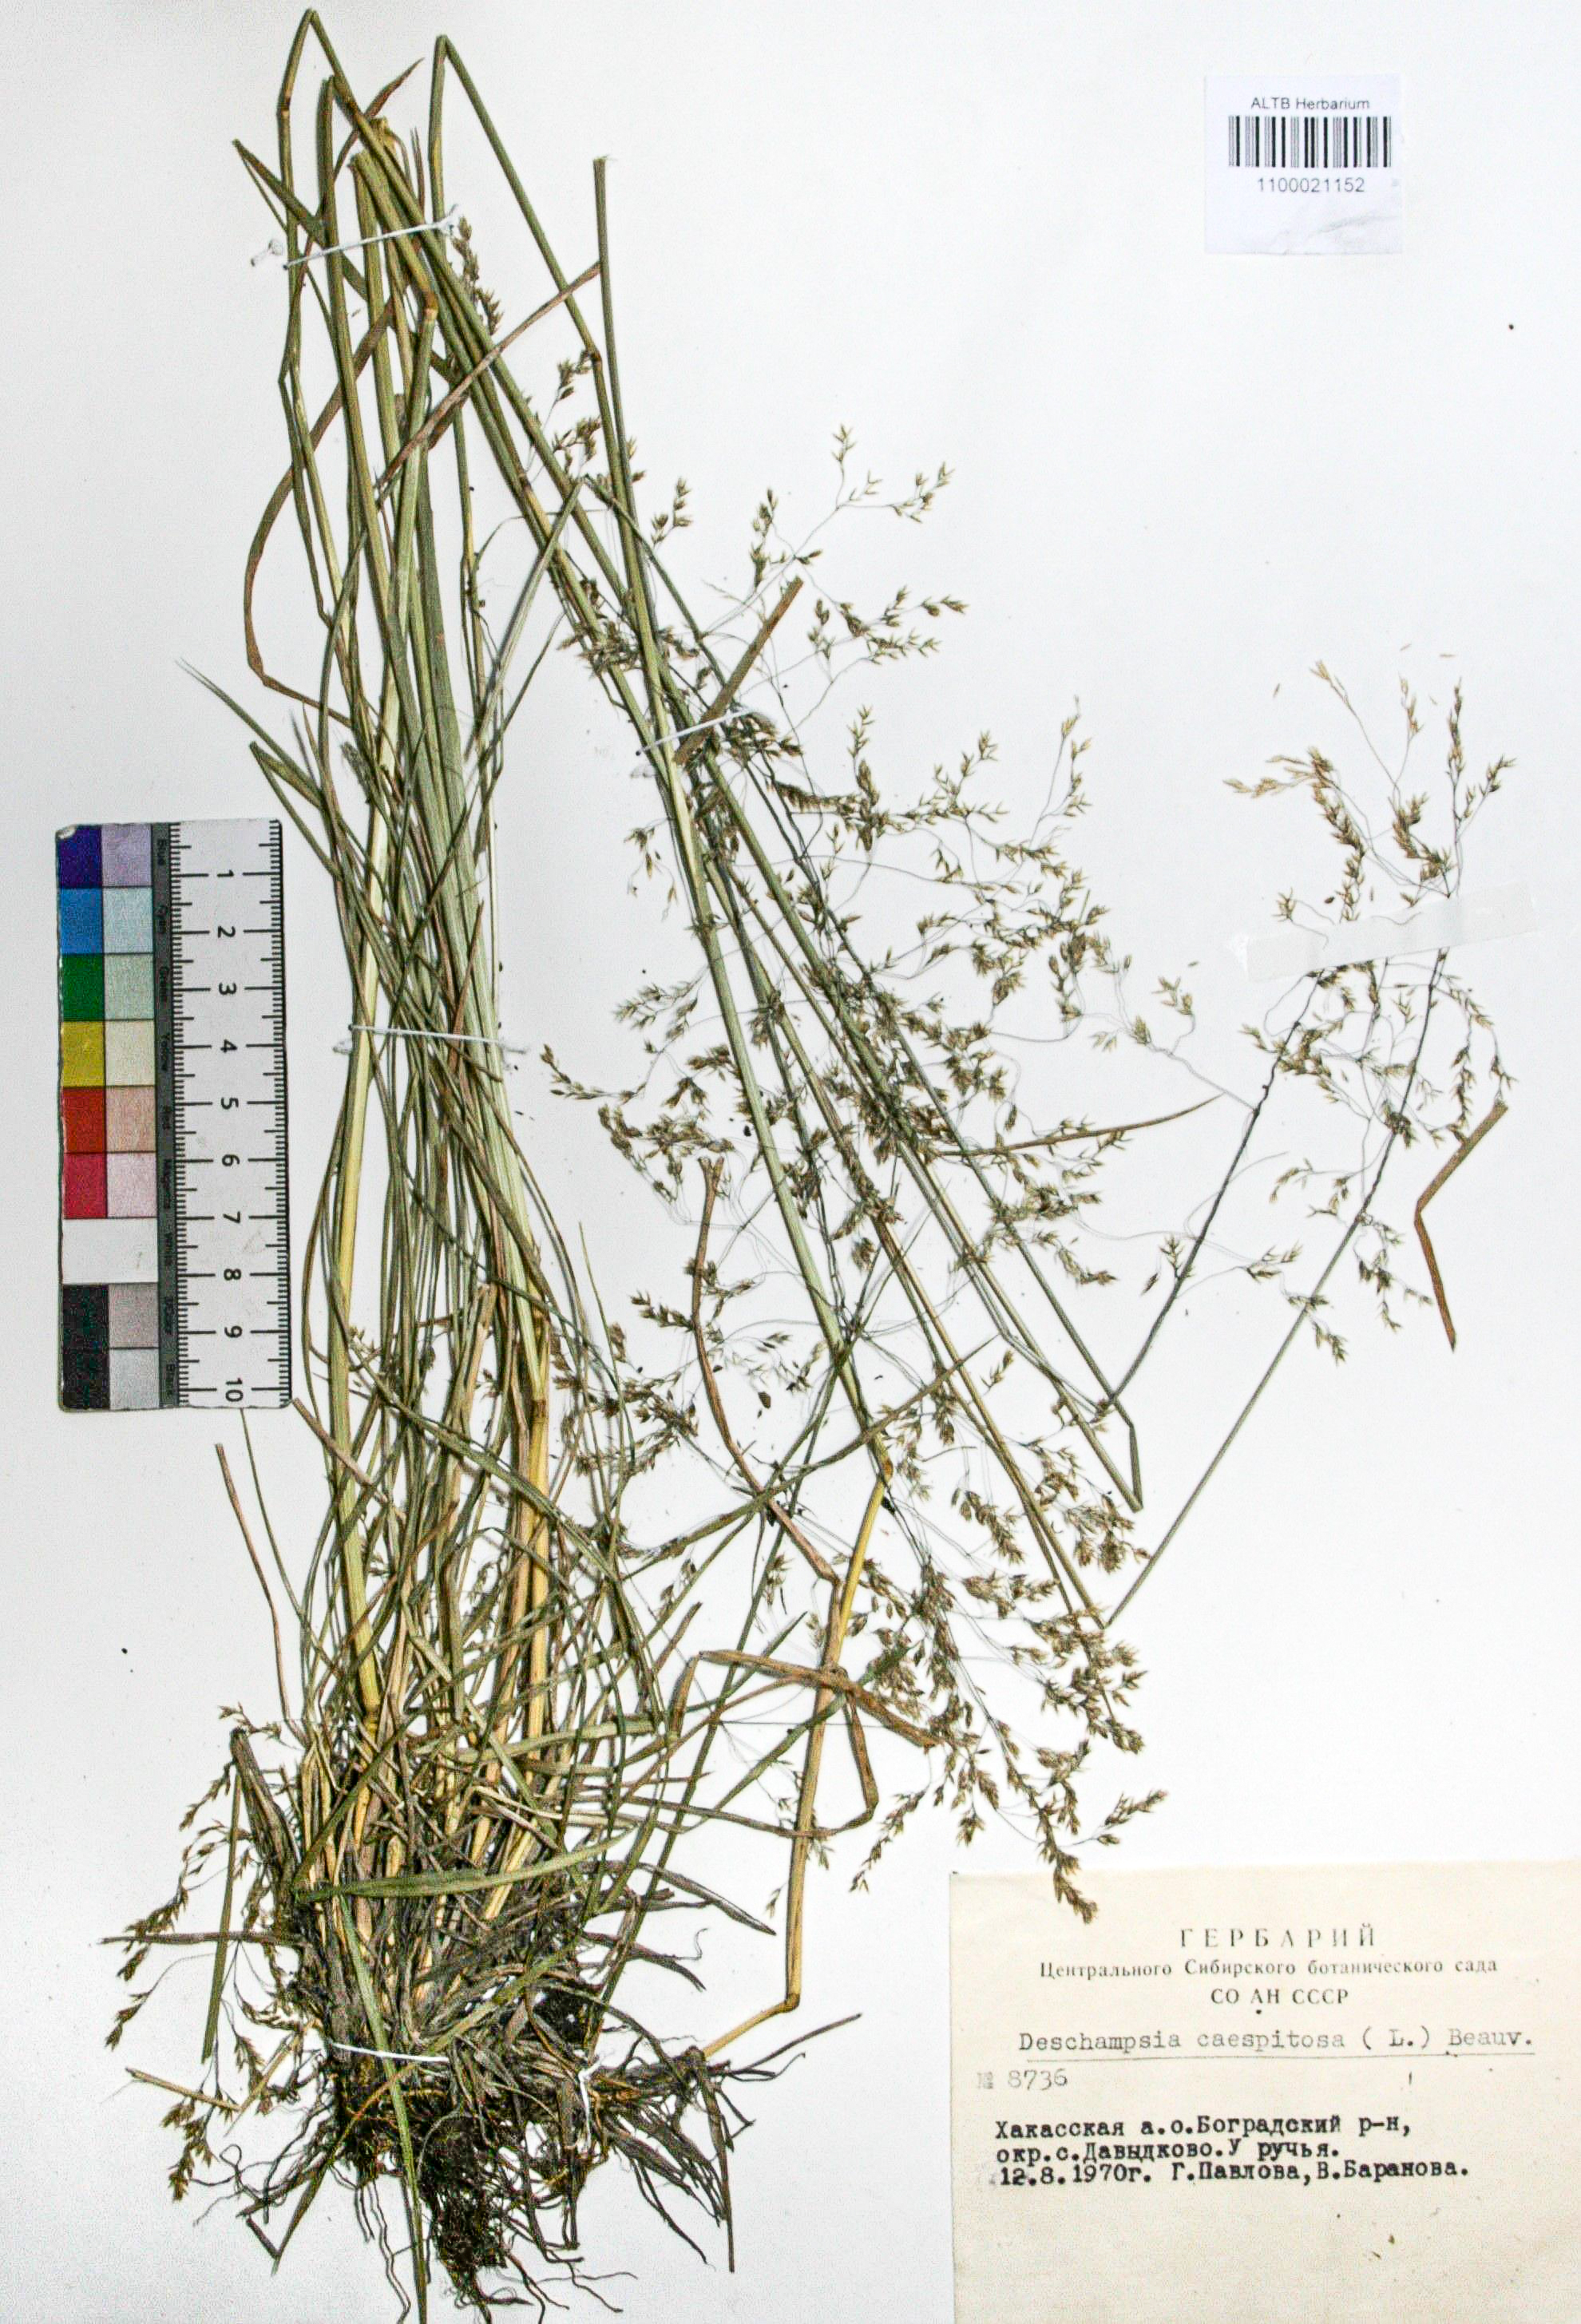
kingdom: Plantae
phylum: Tracheophyta
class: Liliopsida
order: Poales
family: Poaceae
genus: Deschampsia
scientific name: Deschampsia cespitosa
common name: Tufted hair-grass
